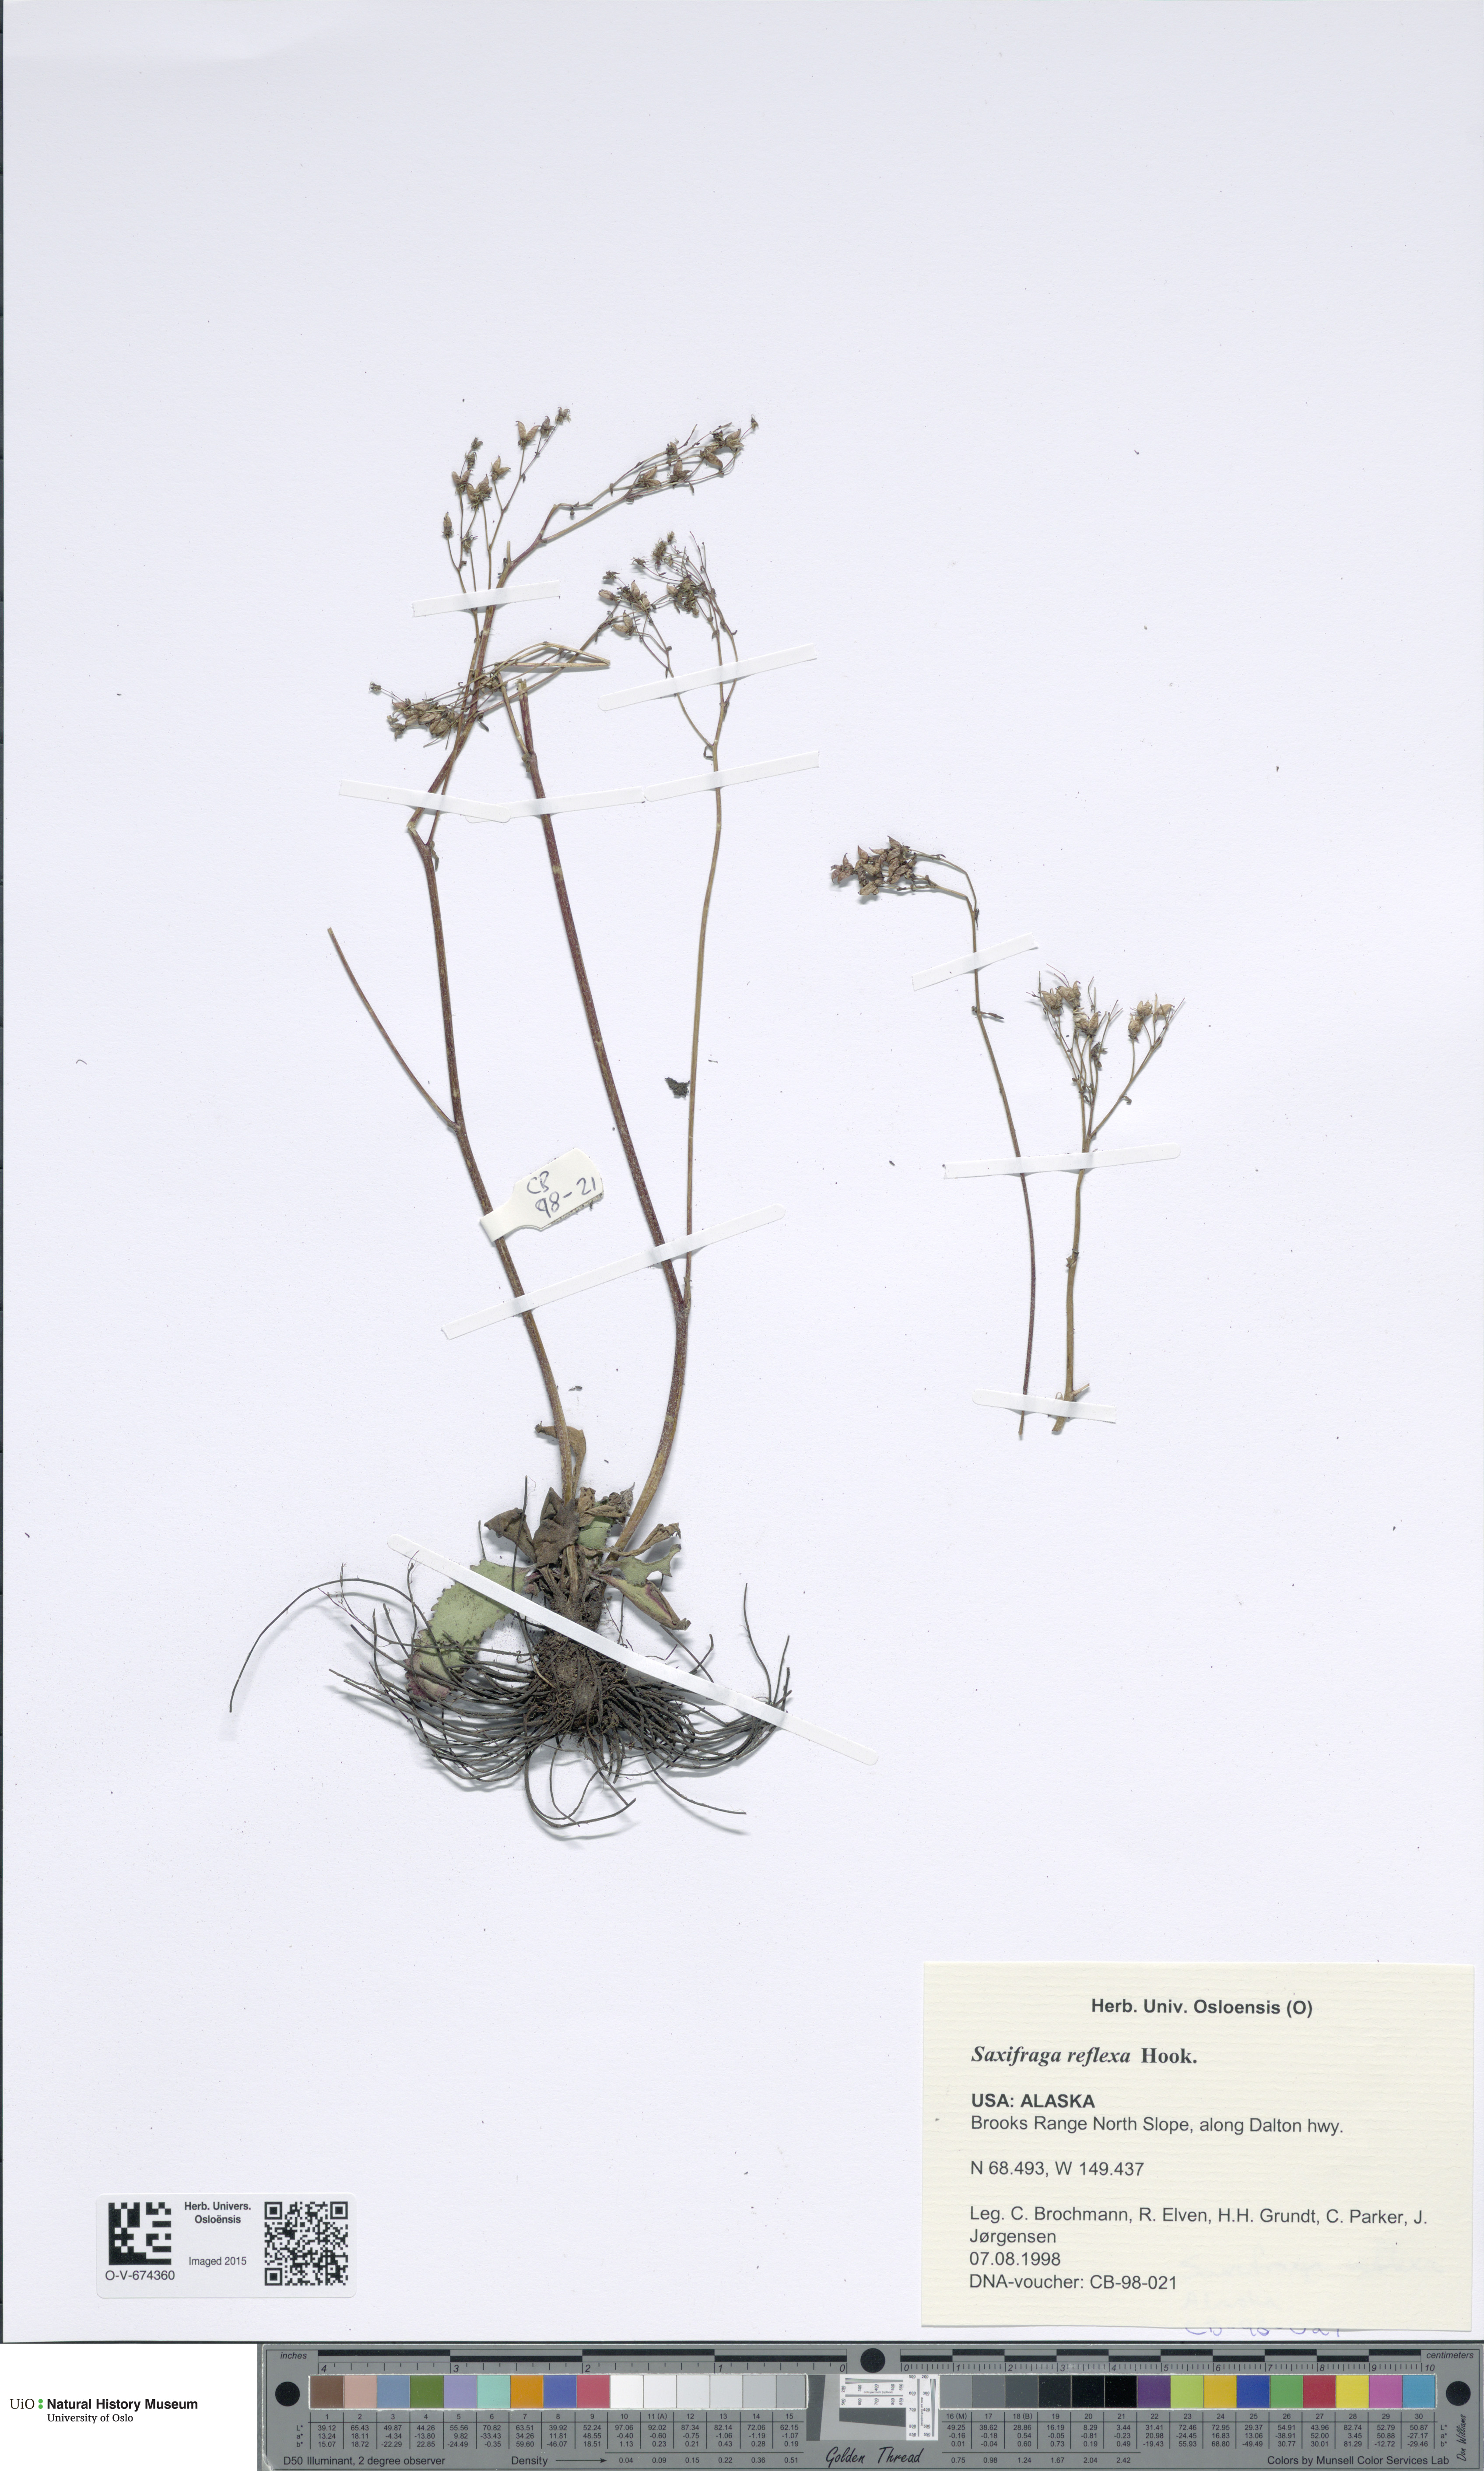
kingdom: Plantae
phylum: Tracheophyta
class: Magnoliopsida
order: Saxifragales
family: Saxifragaceae
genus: Micranthes
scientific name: Micranthes reflexa
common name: Reflexed saxifrage
